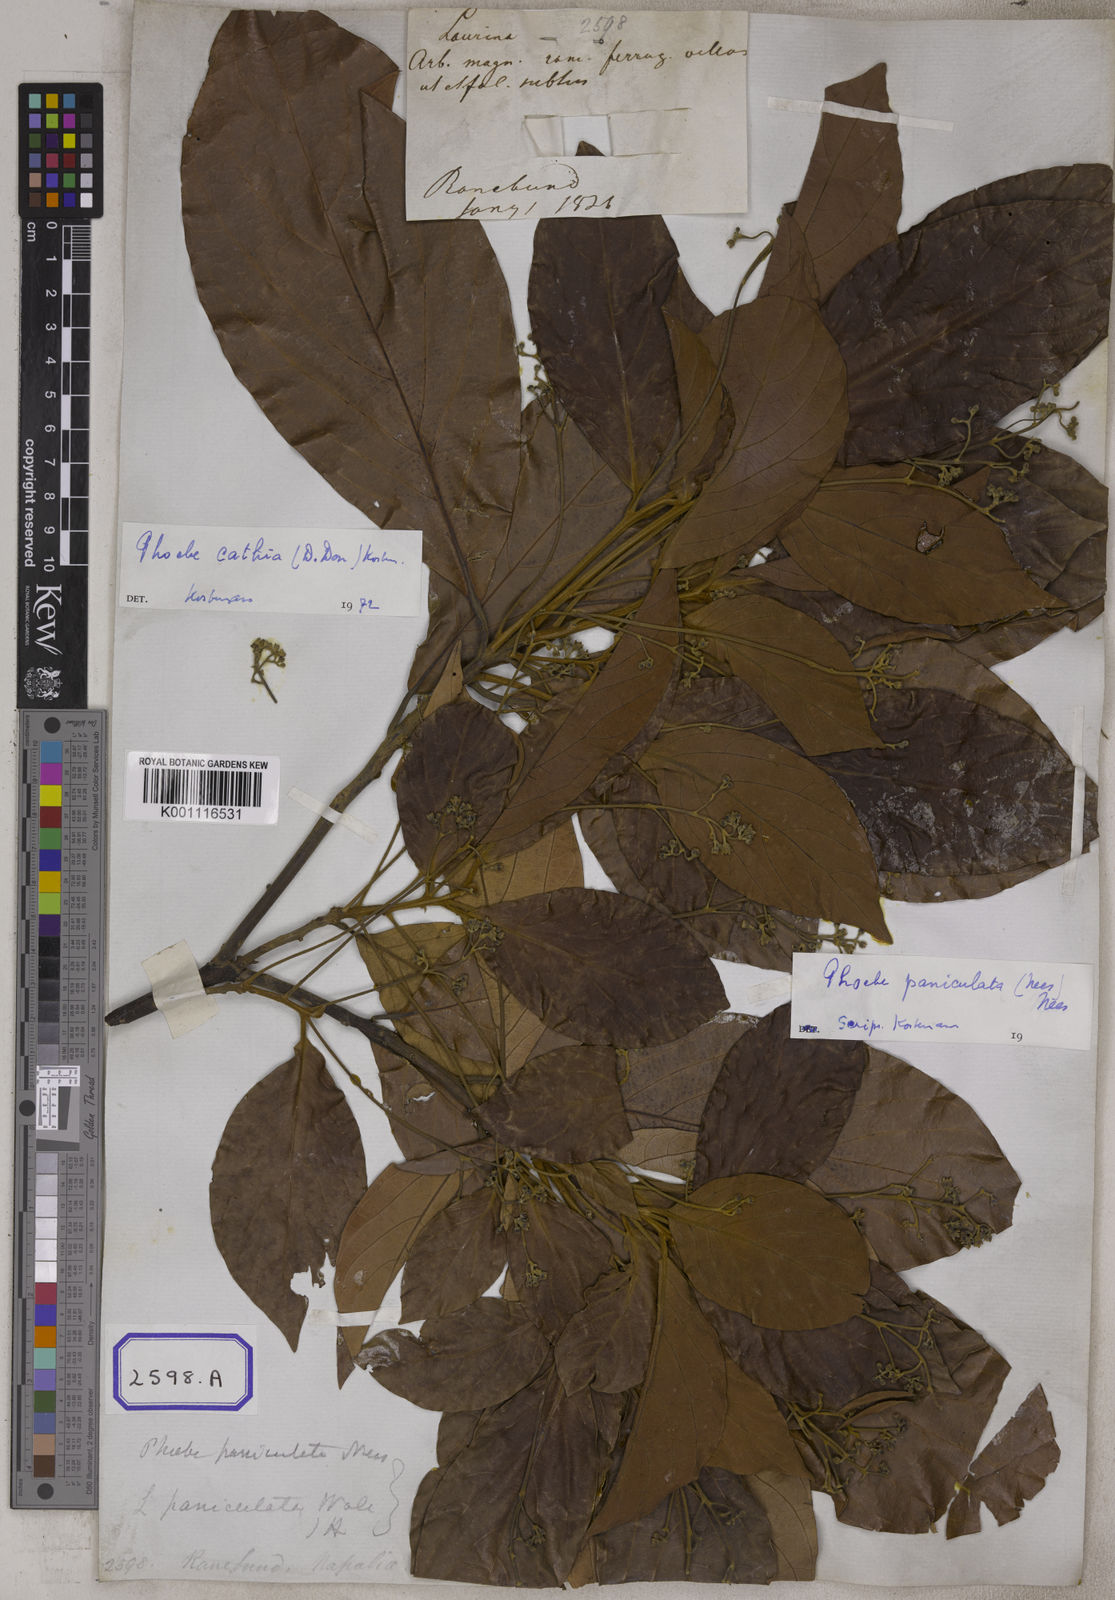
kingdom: Plantae
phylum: Tracheophyta
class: Magnoliopsida
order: Laurales
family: Lauraceae
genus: Phoebe
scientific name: Phoebe cathia
